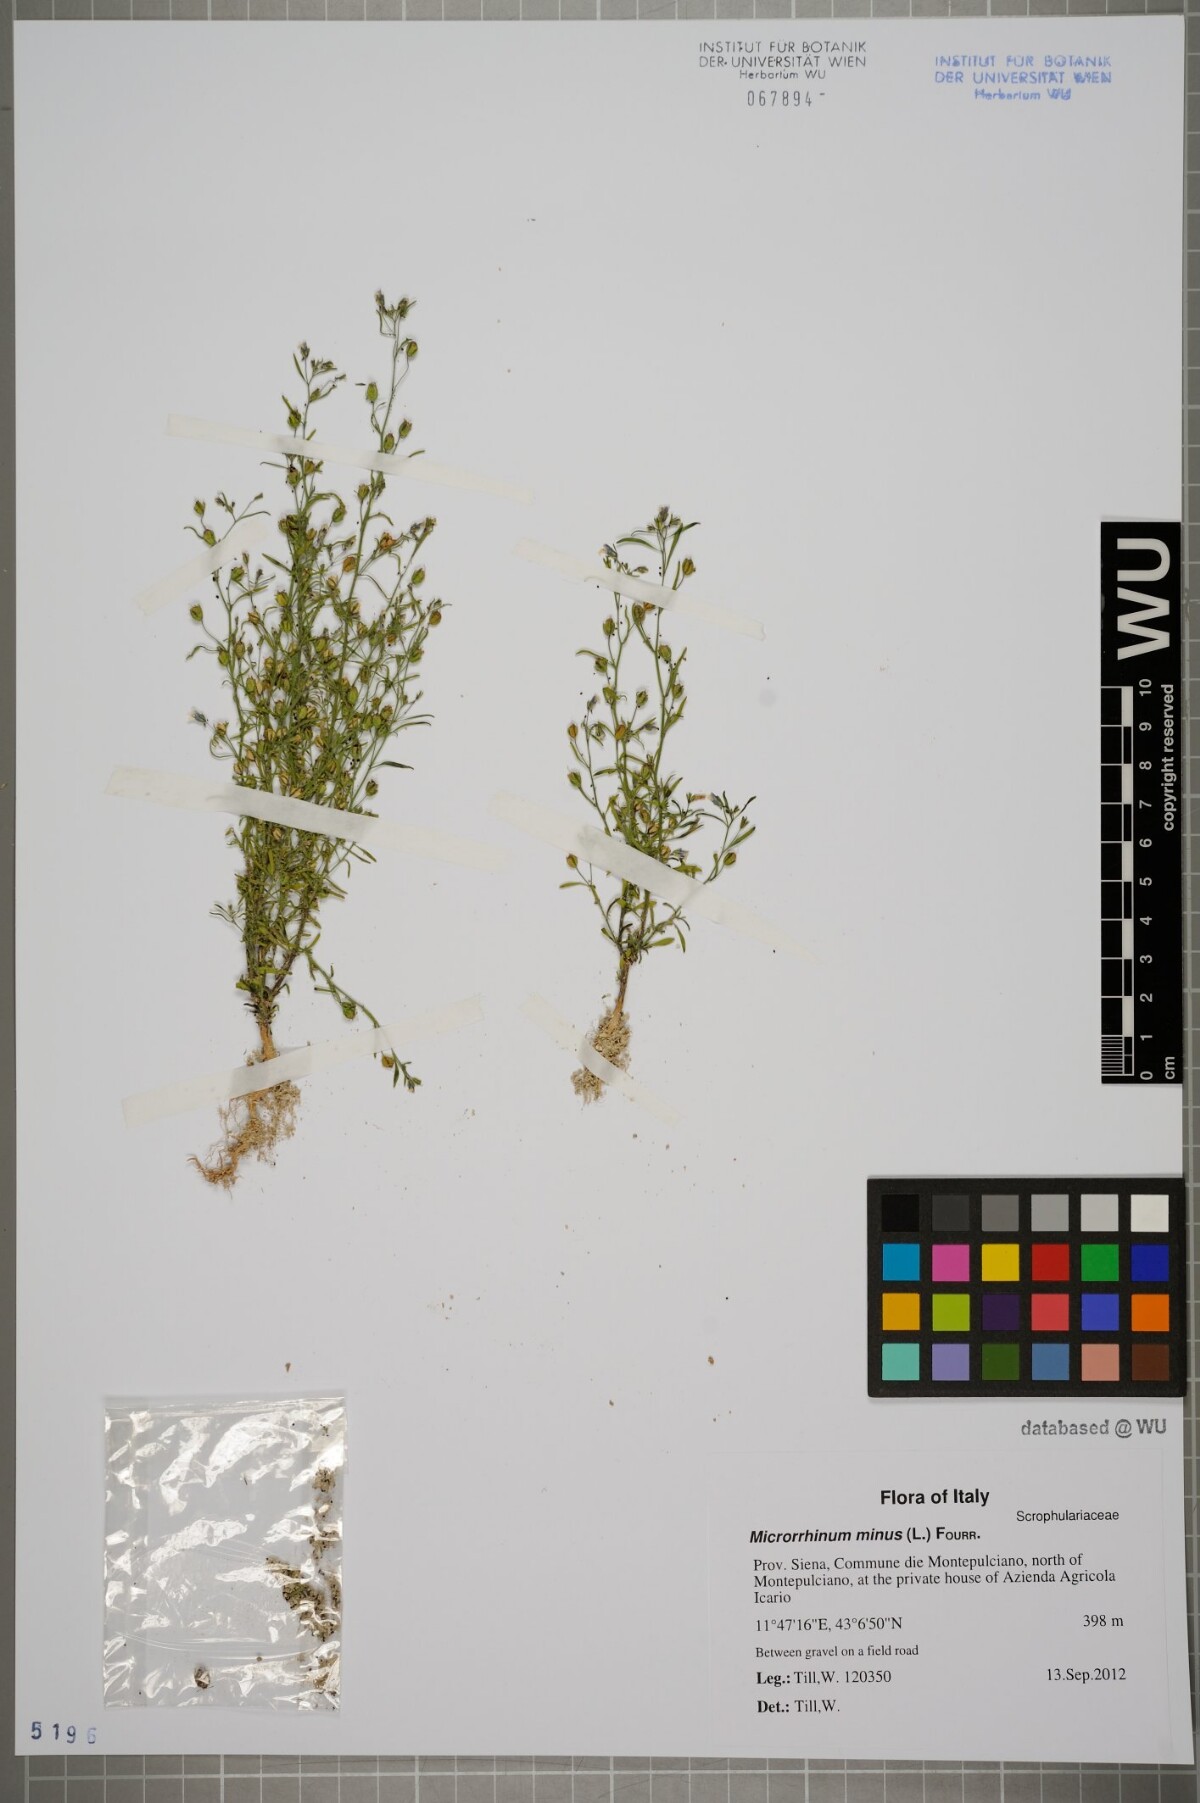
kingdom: Plantae
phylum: Tracheophyta
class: Magnoliopsida
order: Lamiales
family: Plantaginaceae
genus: Chaenorhinum
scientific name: Chaenorhinum minus
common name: Dwarf snapdragon
